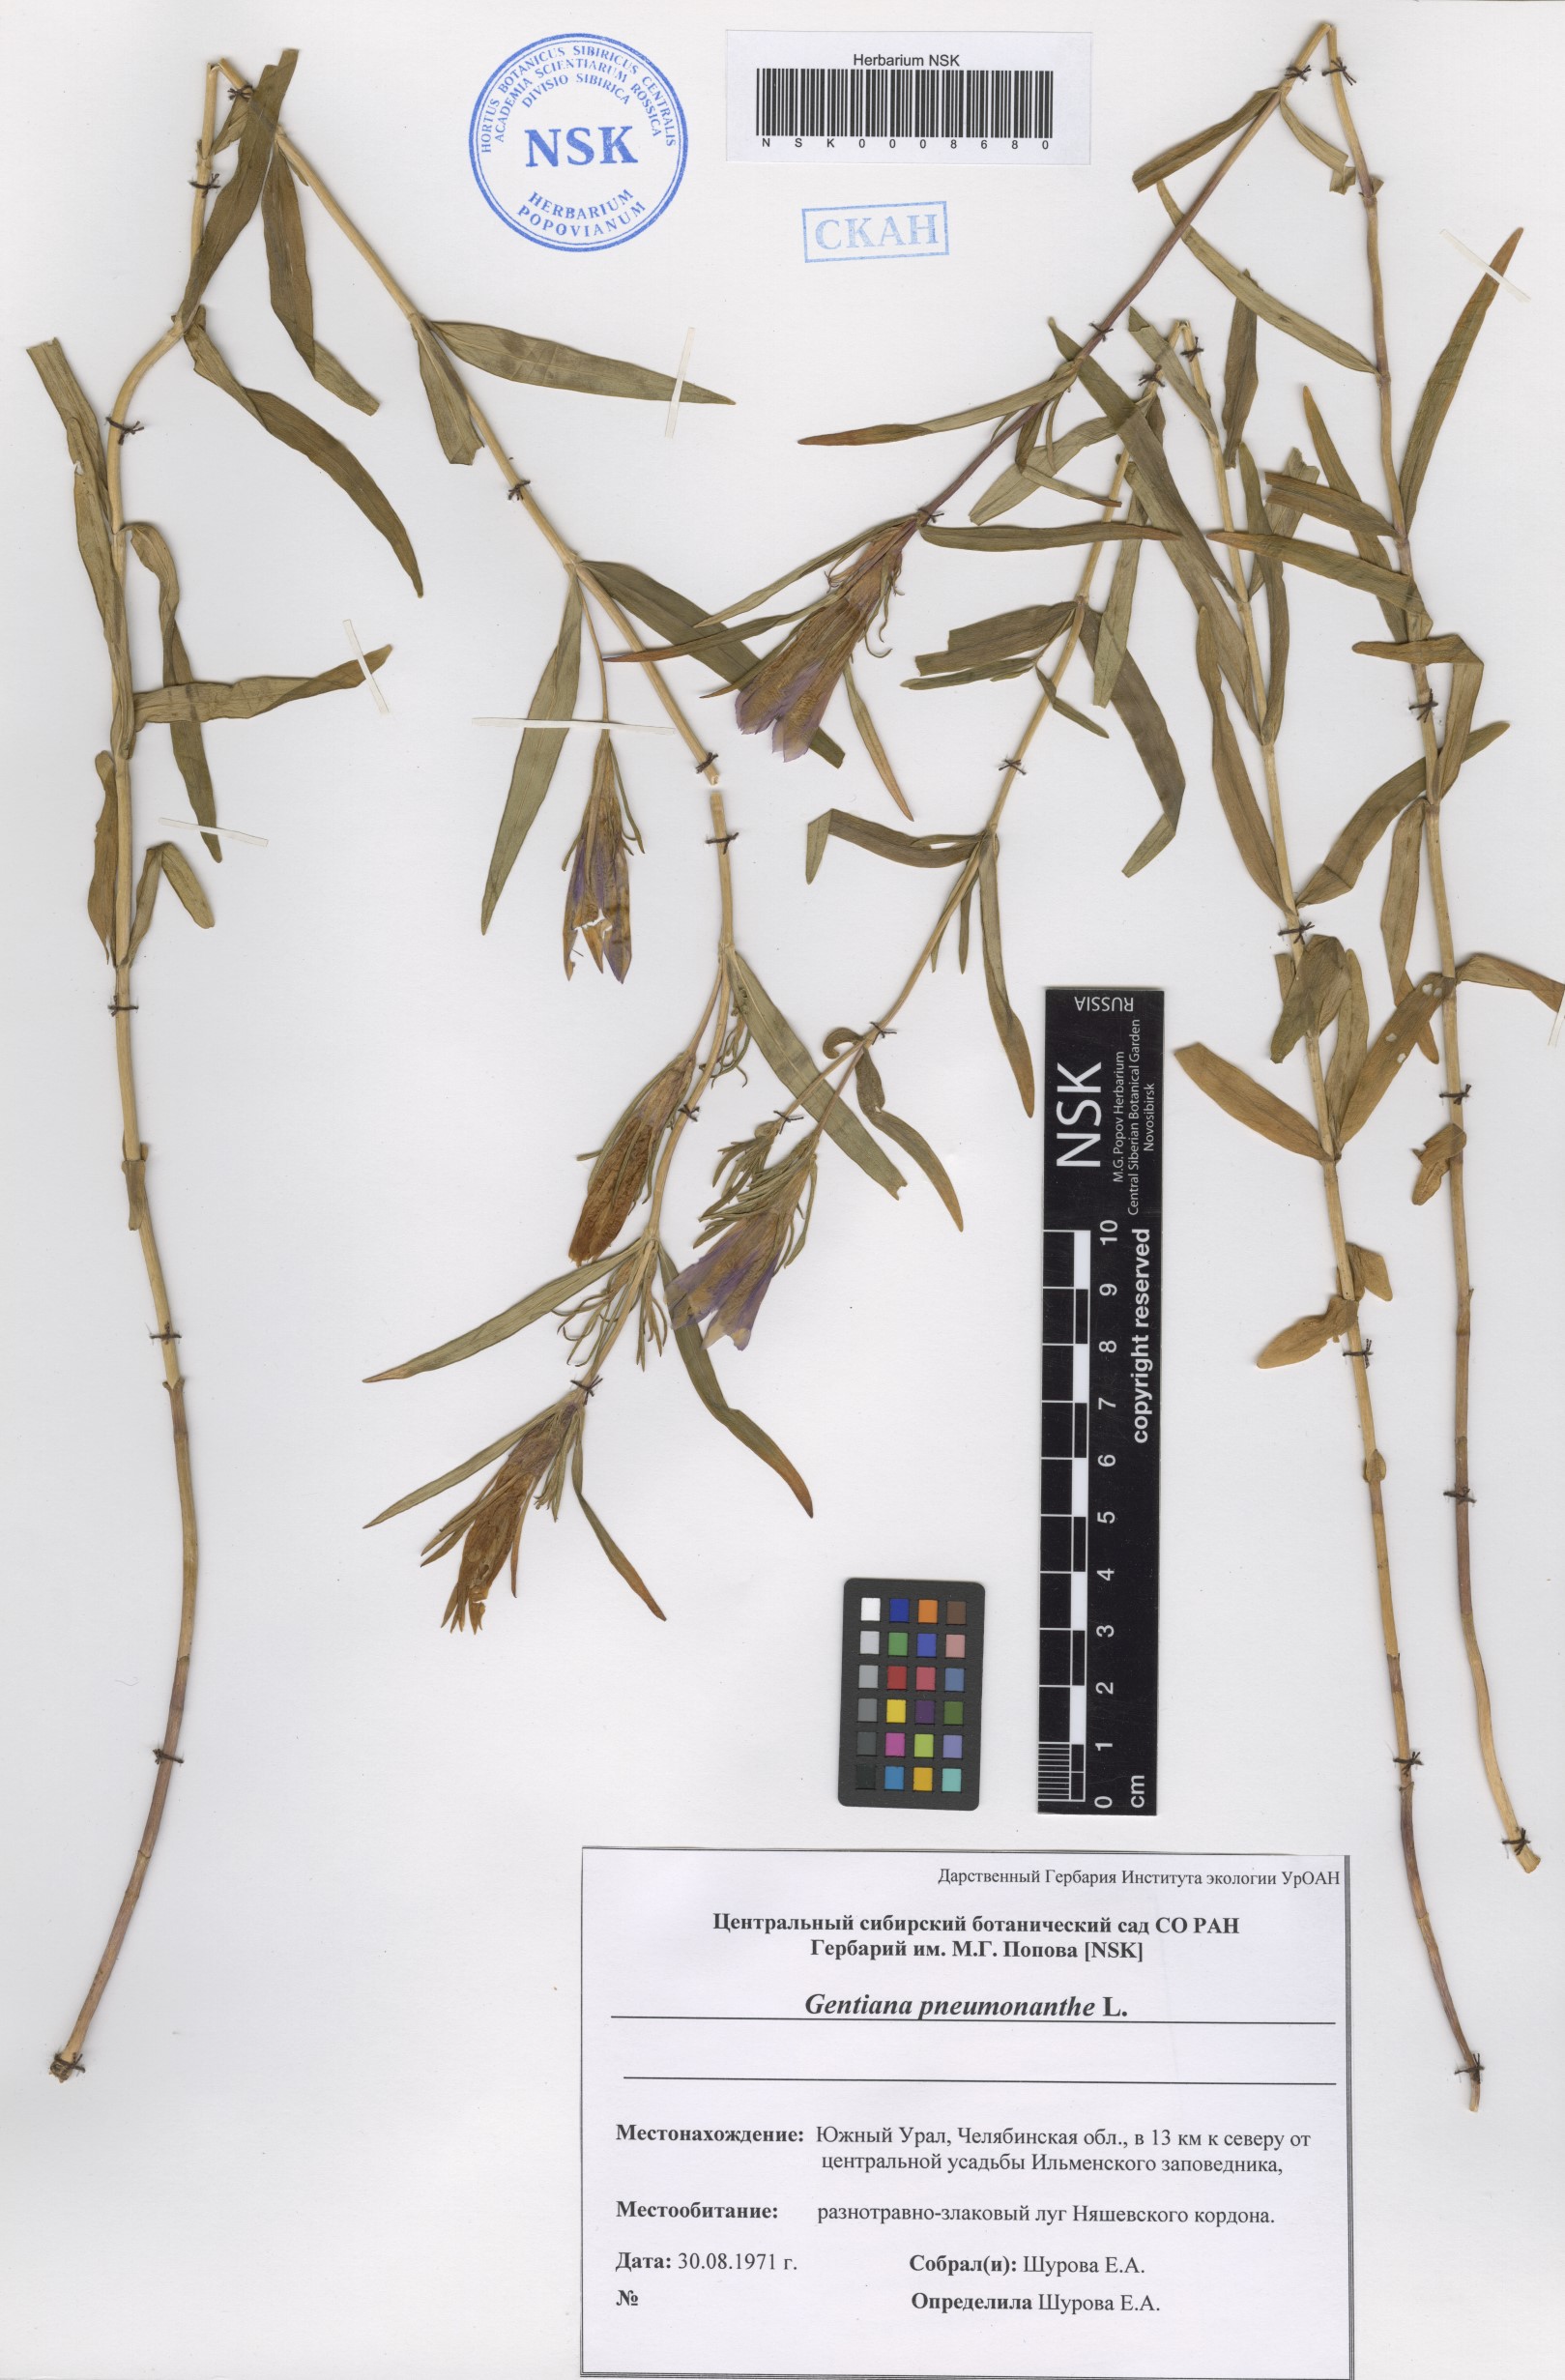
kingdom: Plantae
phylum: Tracheophyta
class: Magnoliopsida
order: Gentianales
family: Gentianaceae
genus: Gentiana
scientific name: Gentiana pneumonanthe
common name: Marsh gentian
